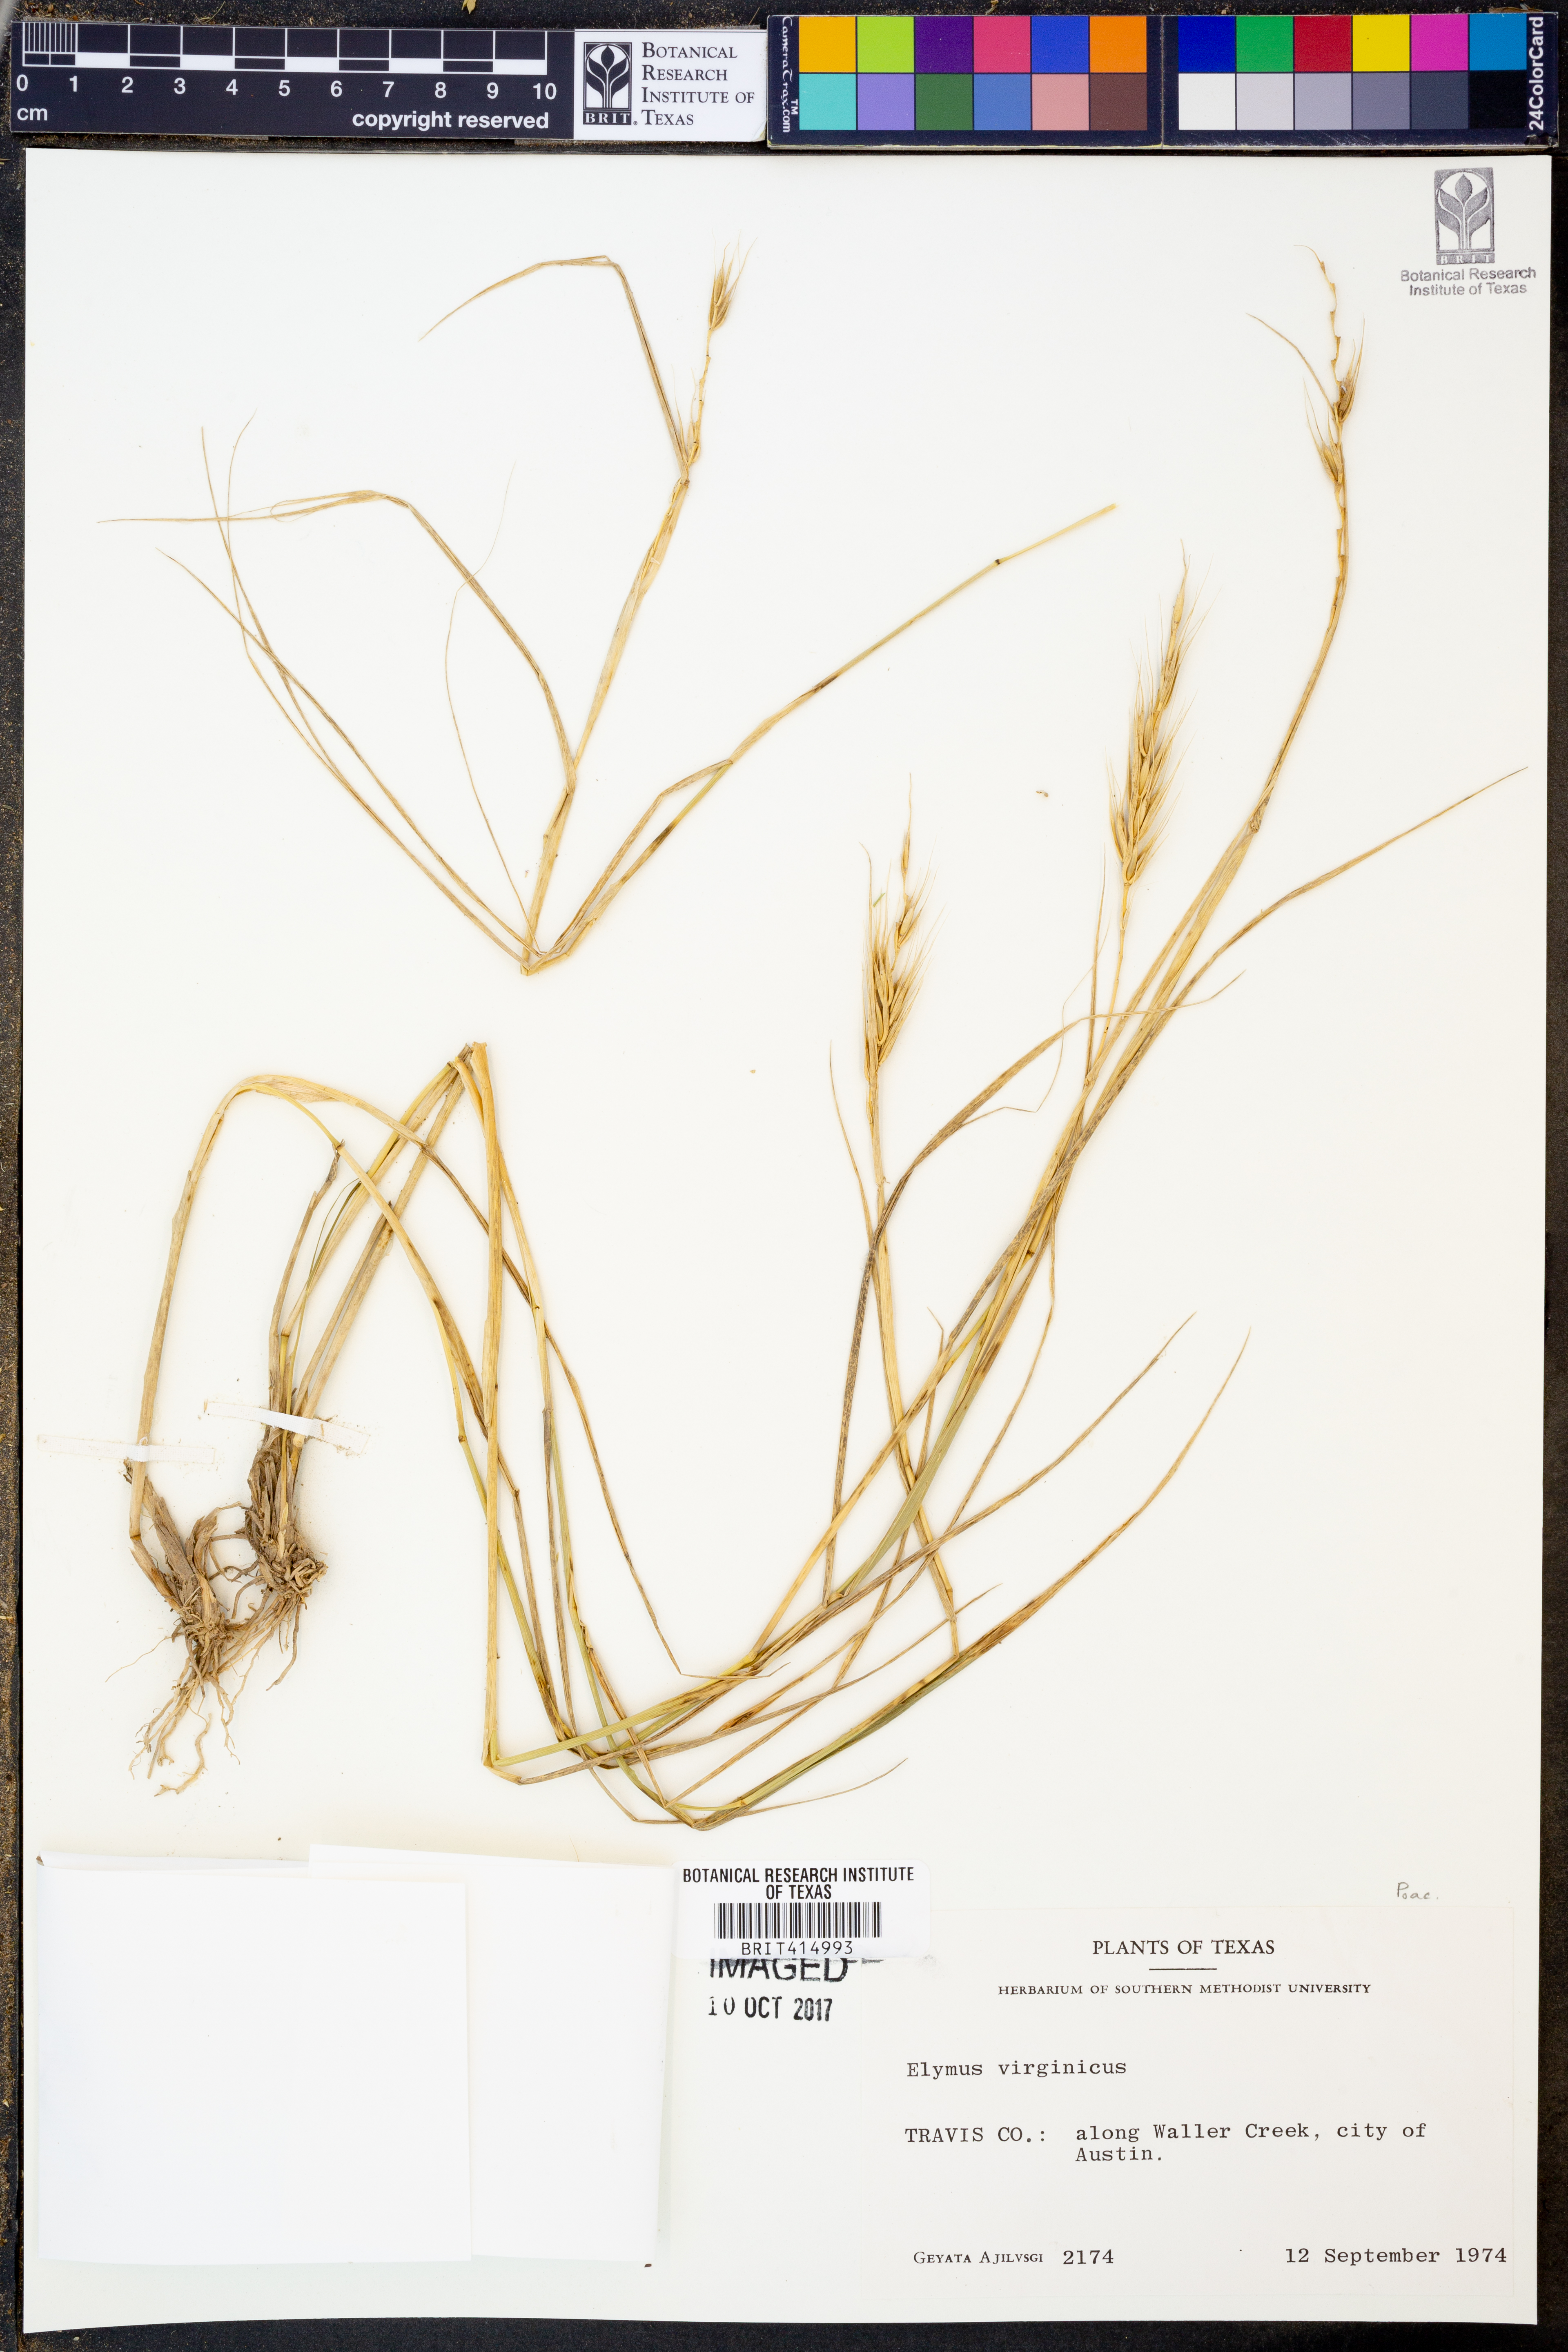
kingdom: Plantae
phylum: Tracheophyta
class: Liliopsida
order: Poales
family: Poaceae
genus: Elymus
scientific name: Elymus virginicus
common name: Common eastern wildrye
